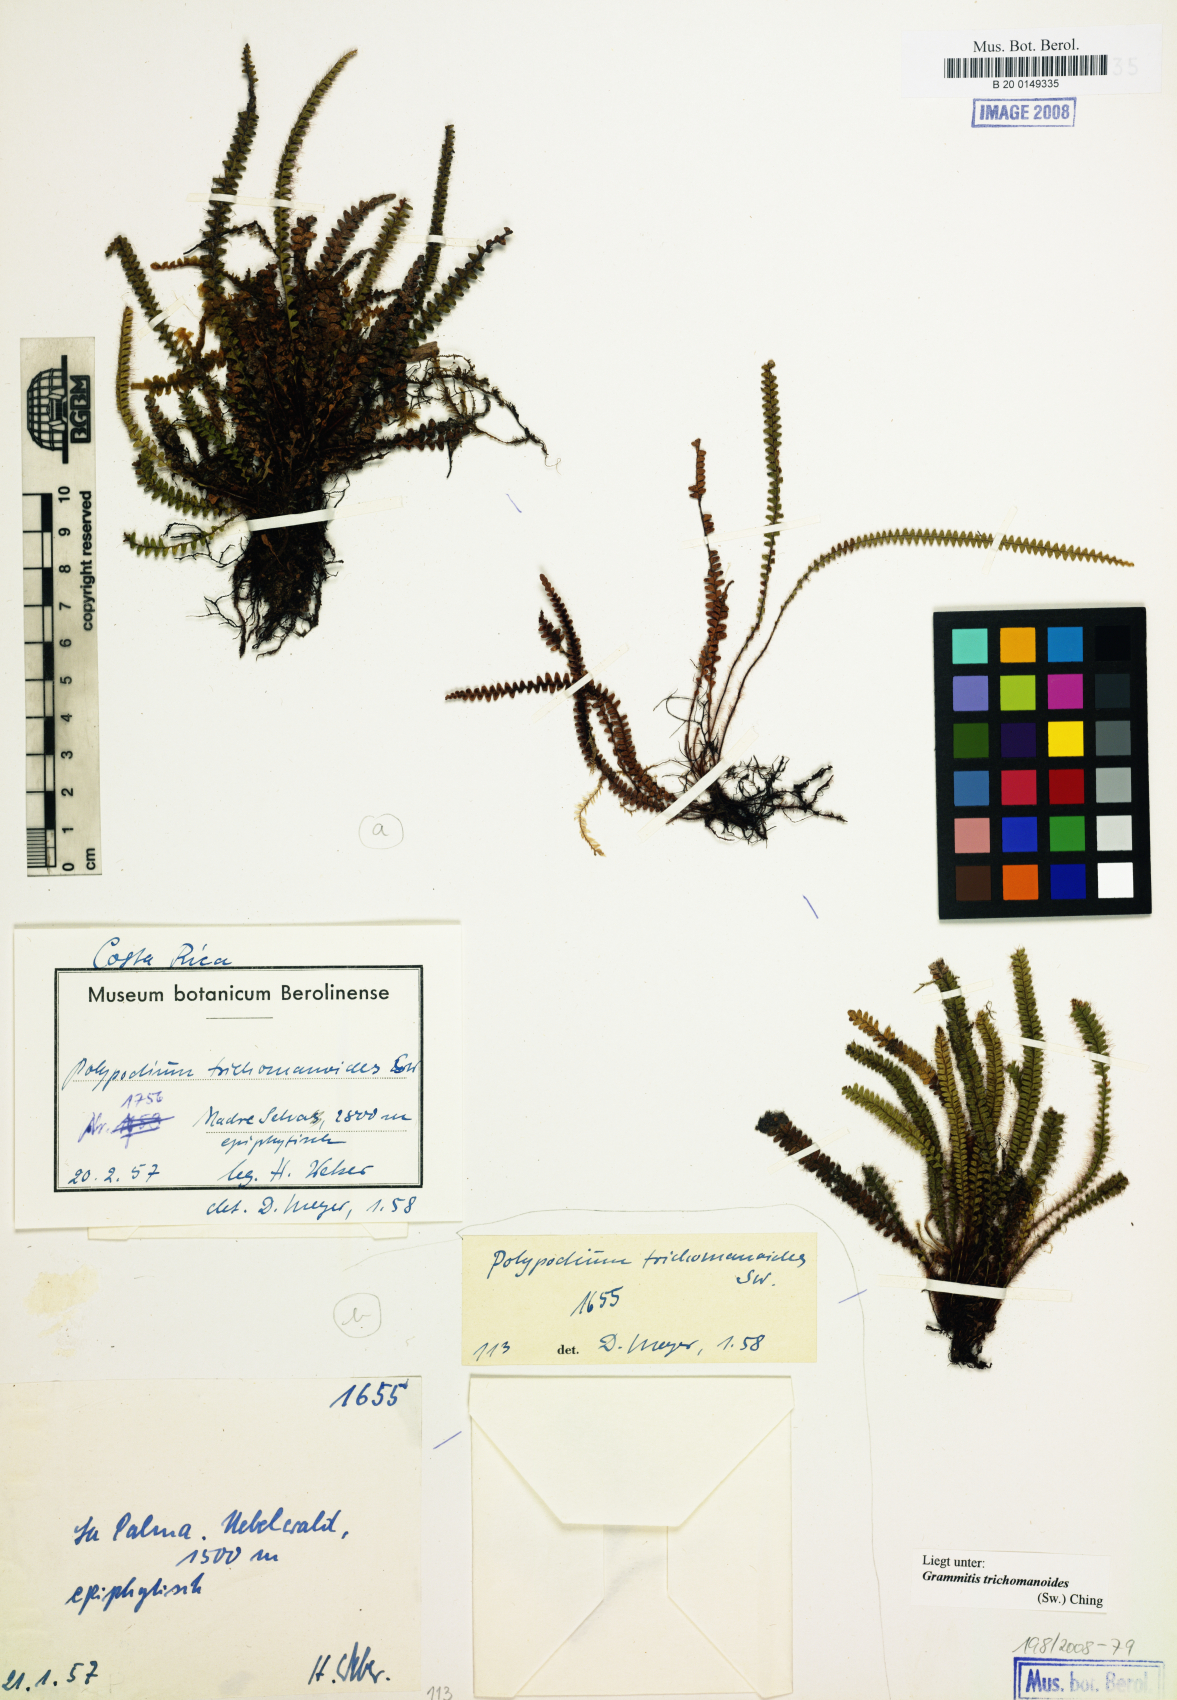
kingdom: Plantae
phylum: Tracheophyta
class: Polypodiopsida
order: Polypodiales
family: Polypodiaceae
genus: Moranopteris
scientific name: Moranopteris microlepis
